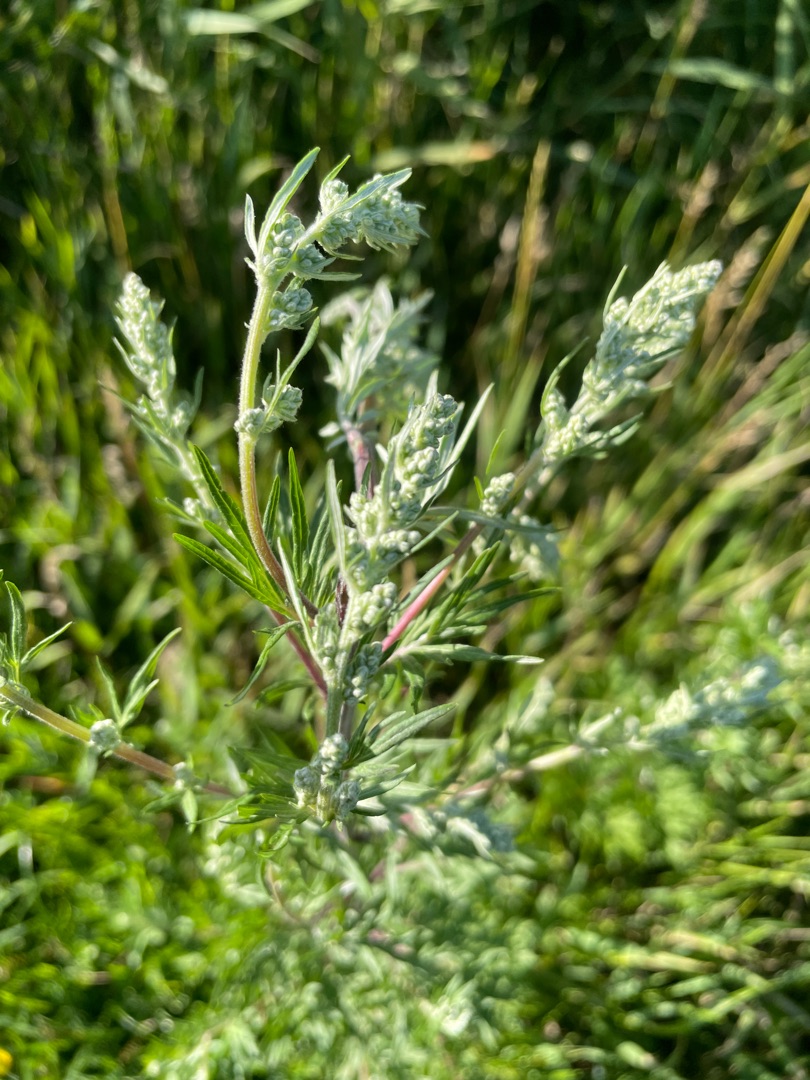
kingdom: Plantae
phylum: Tracheophyta
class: Magnoliopsida
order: Asterales
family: Asteraceae
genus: Artemisia
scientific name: Artemisia vulgaris
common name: Grå-bynke
